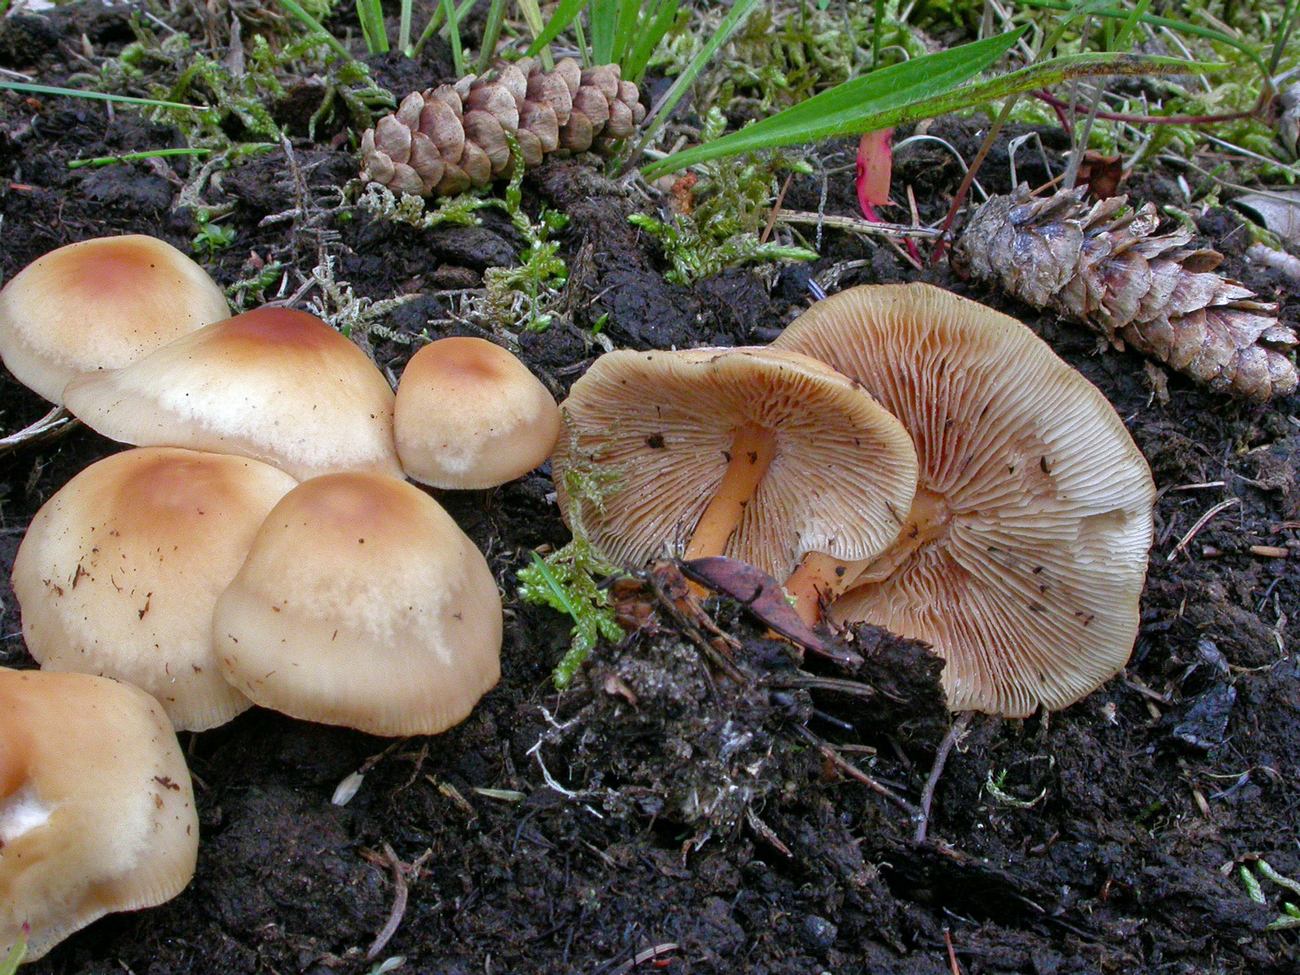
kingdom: Fungi
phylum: Basidiomycota
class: Agaricomycetes
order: Agaricales
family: Omphalotaceae
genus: Gymnopus
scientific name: Gymnopus dryophilus
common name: løv-fladhat
